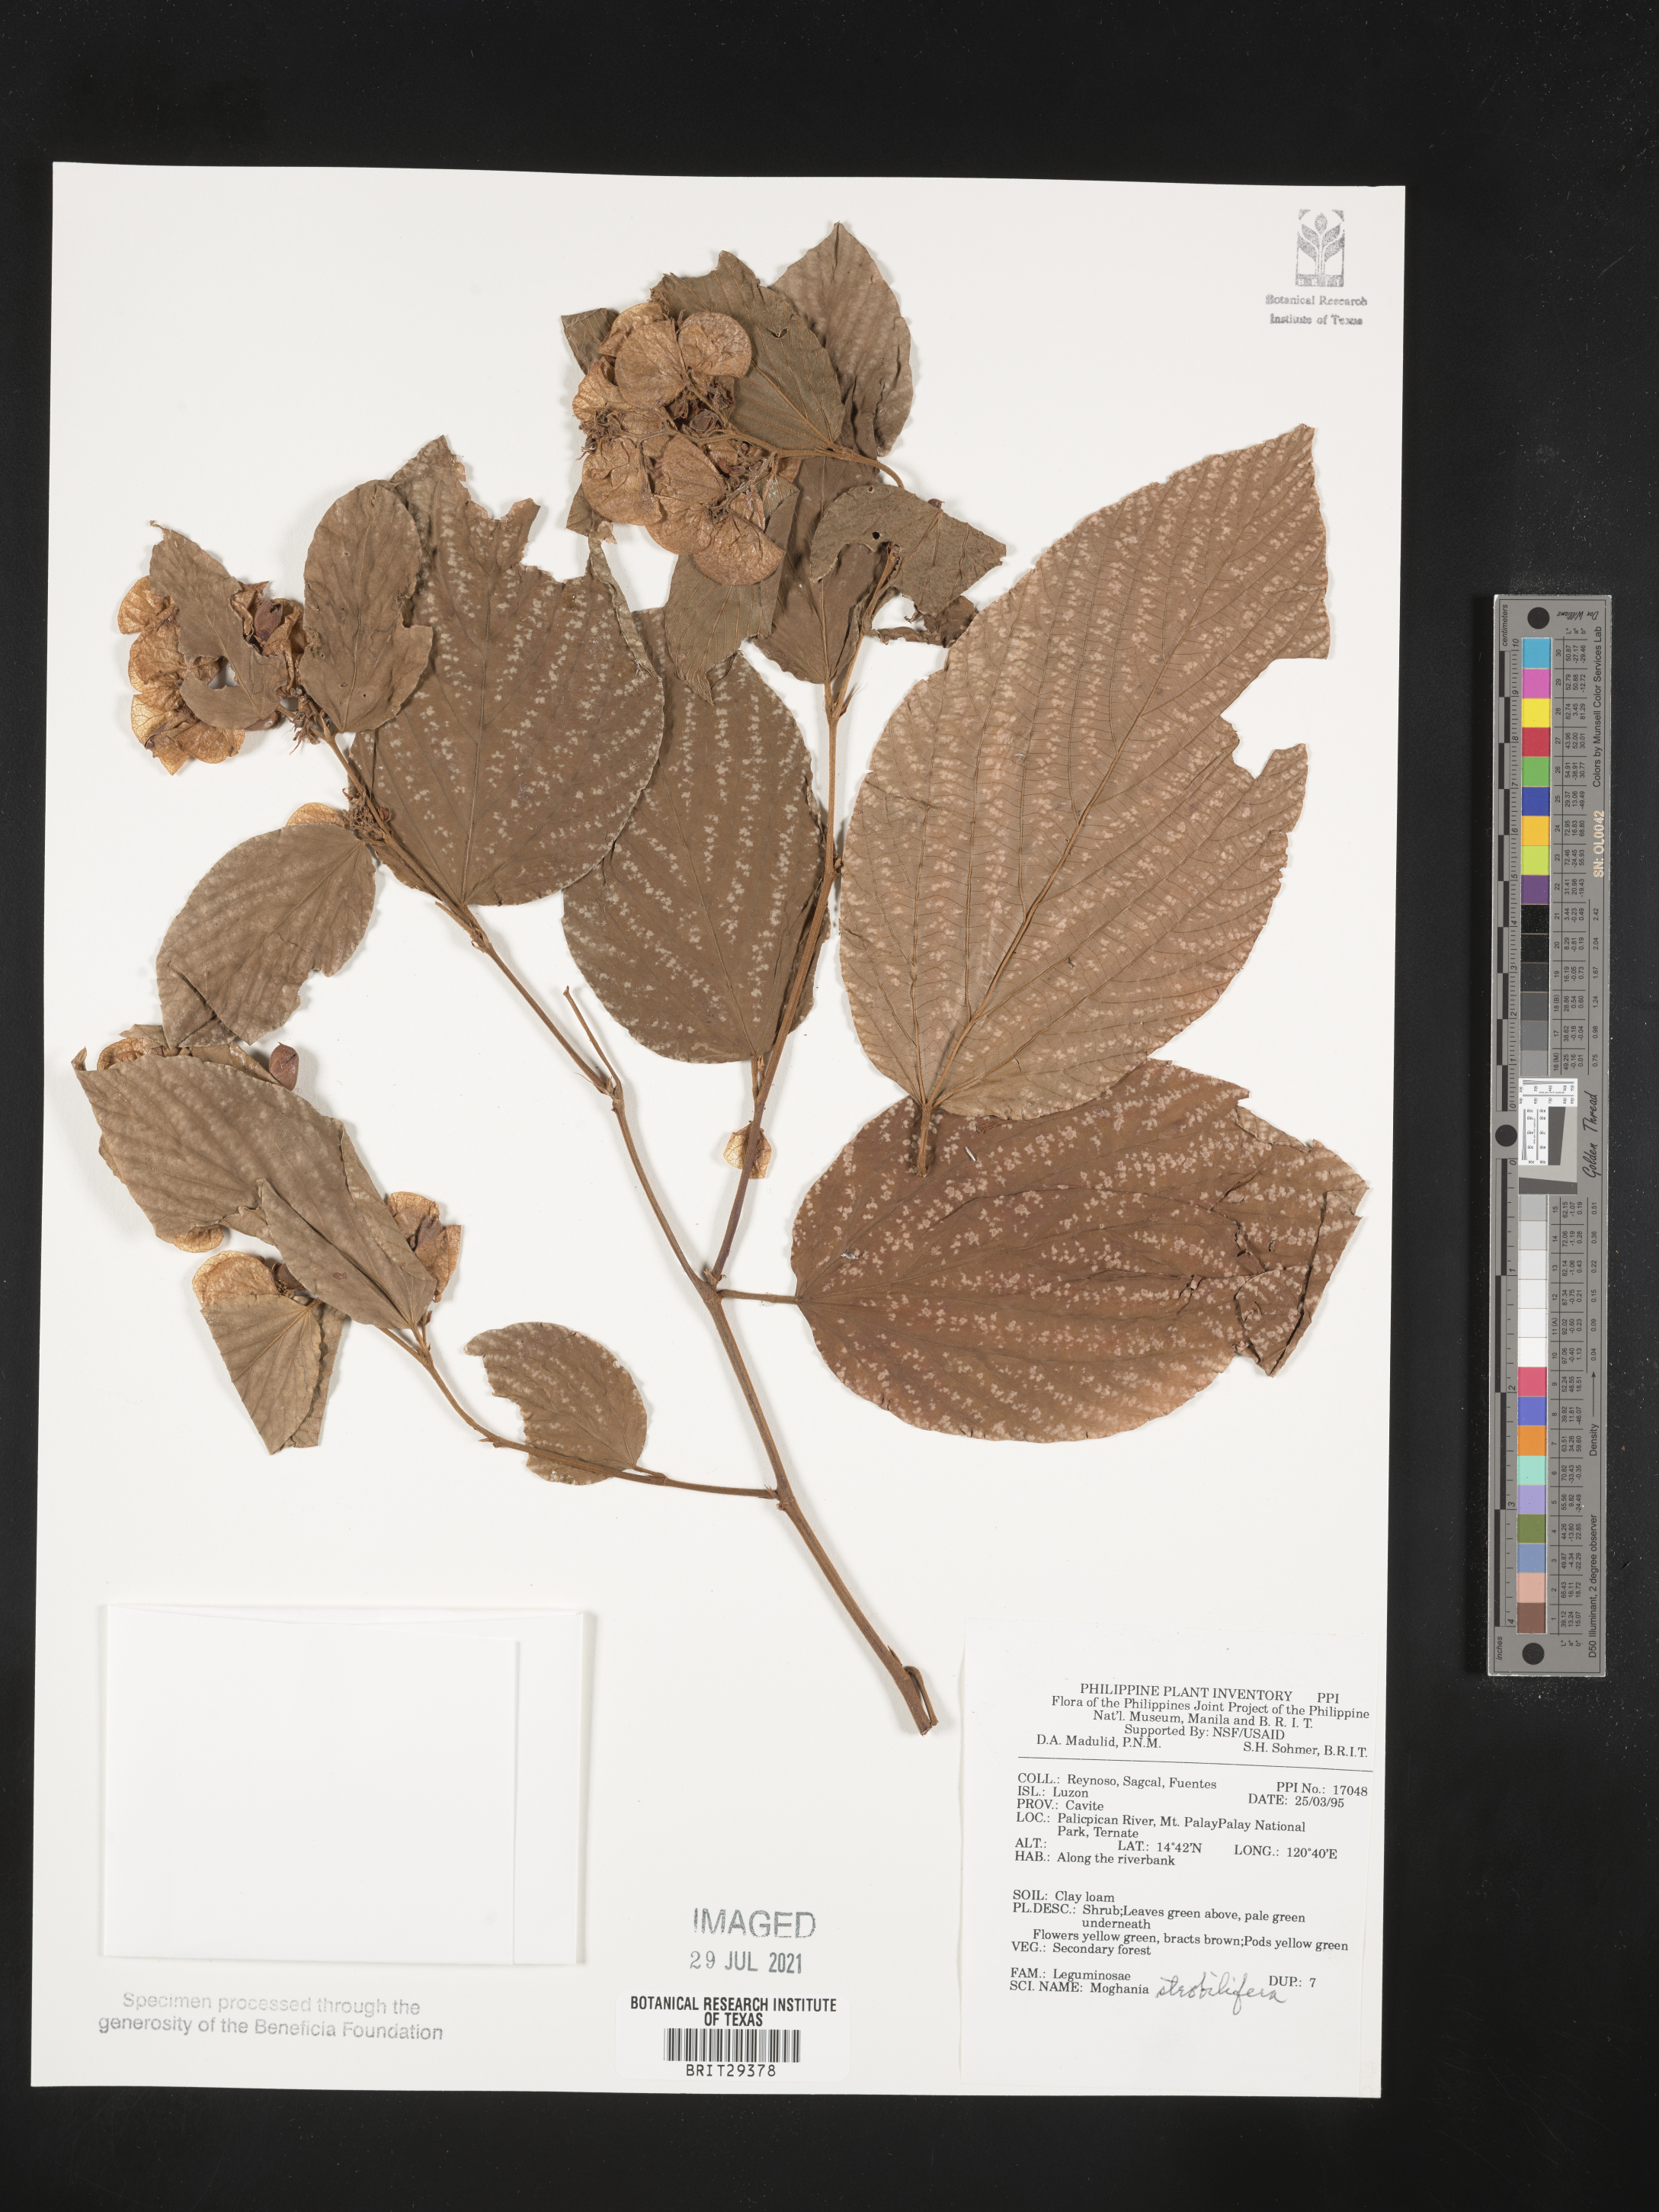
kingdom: Plantae
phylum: Tracheophyta
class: Magnoliopsida
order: Fabales
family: Fabaceae
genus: Flemingia
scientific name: Flemingia strobilifera
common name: Wild hops
